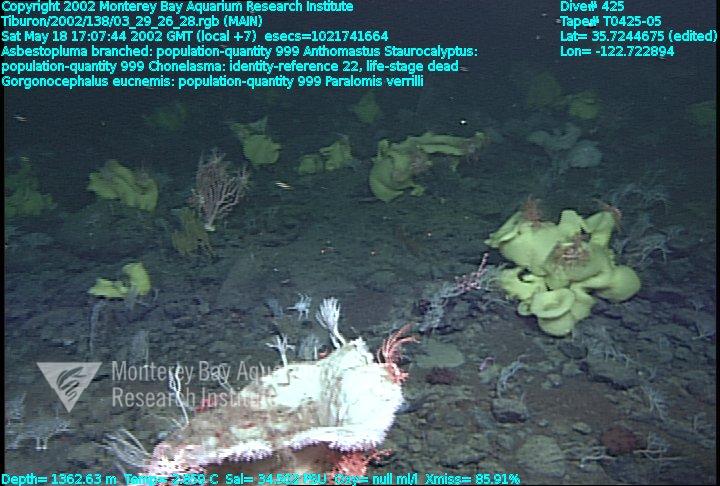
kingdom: Animalia
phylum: Porifera
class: Demospongiae
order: Poecilosclerida
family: Cladorhizidae
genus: Asbestopluma
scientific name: Asbestopluma monticola
